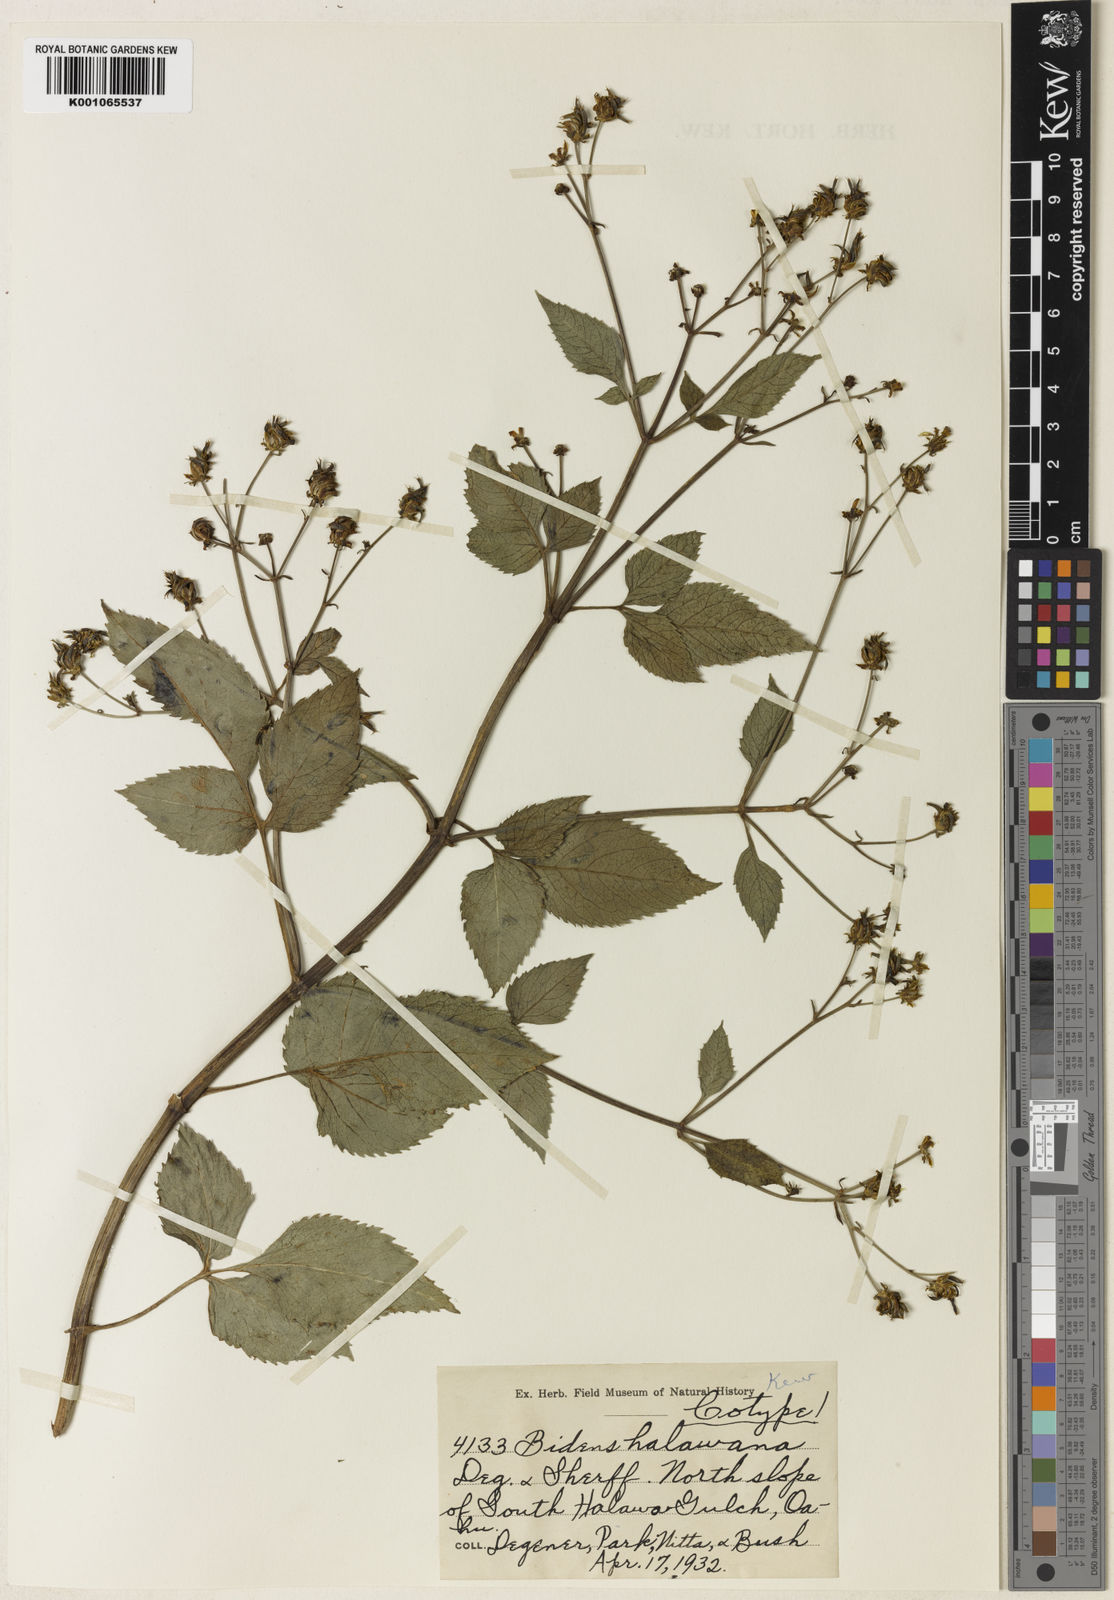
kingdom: Plantae
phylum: Tracheophyta
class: Magnoliopsida
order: Asterales
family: Asteraceae
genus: Bidens
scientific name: Bidens asymmetrica
